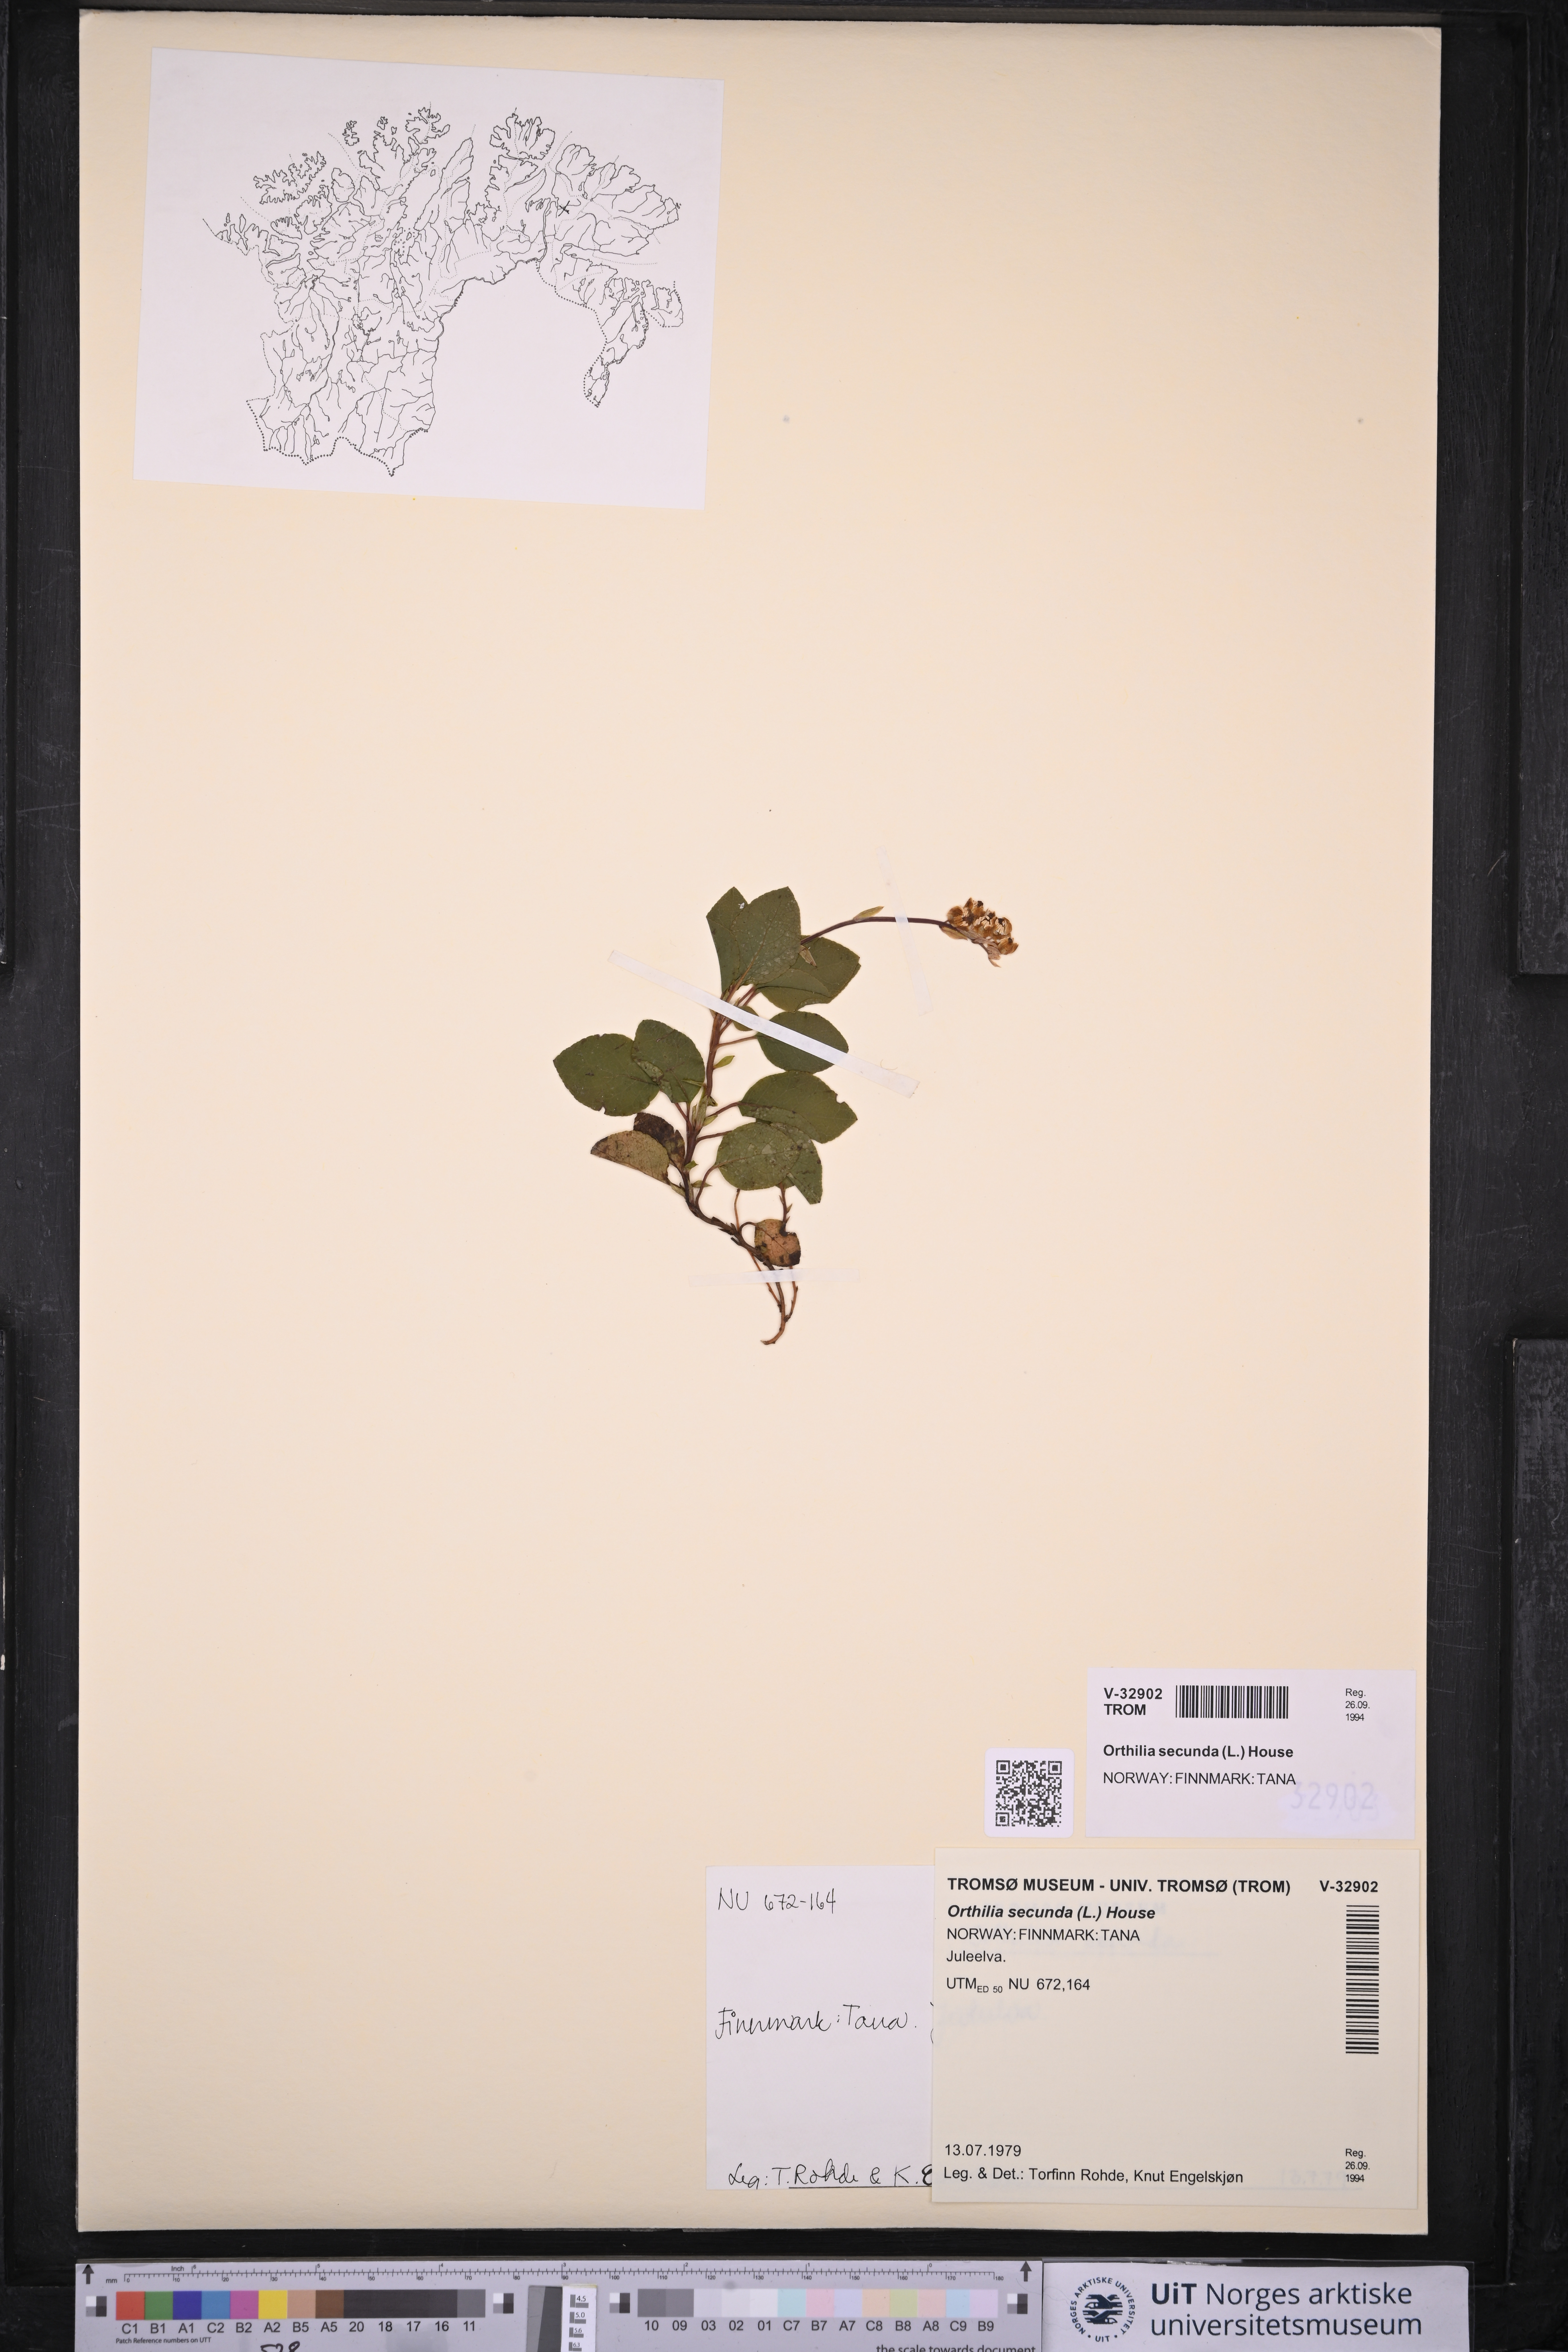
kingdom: Plantae
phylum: Tracheophyta
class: Magnoliopsida
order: Ericales
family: Ericaceae
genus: Orthilia
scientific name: Orthilia secunda
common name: One-sided orthilia
